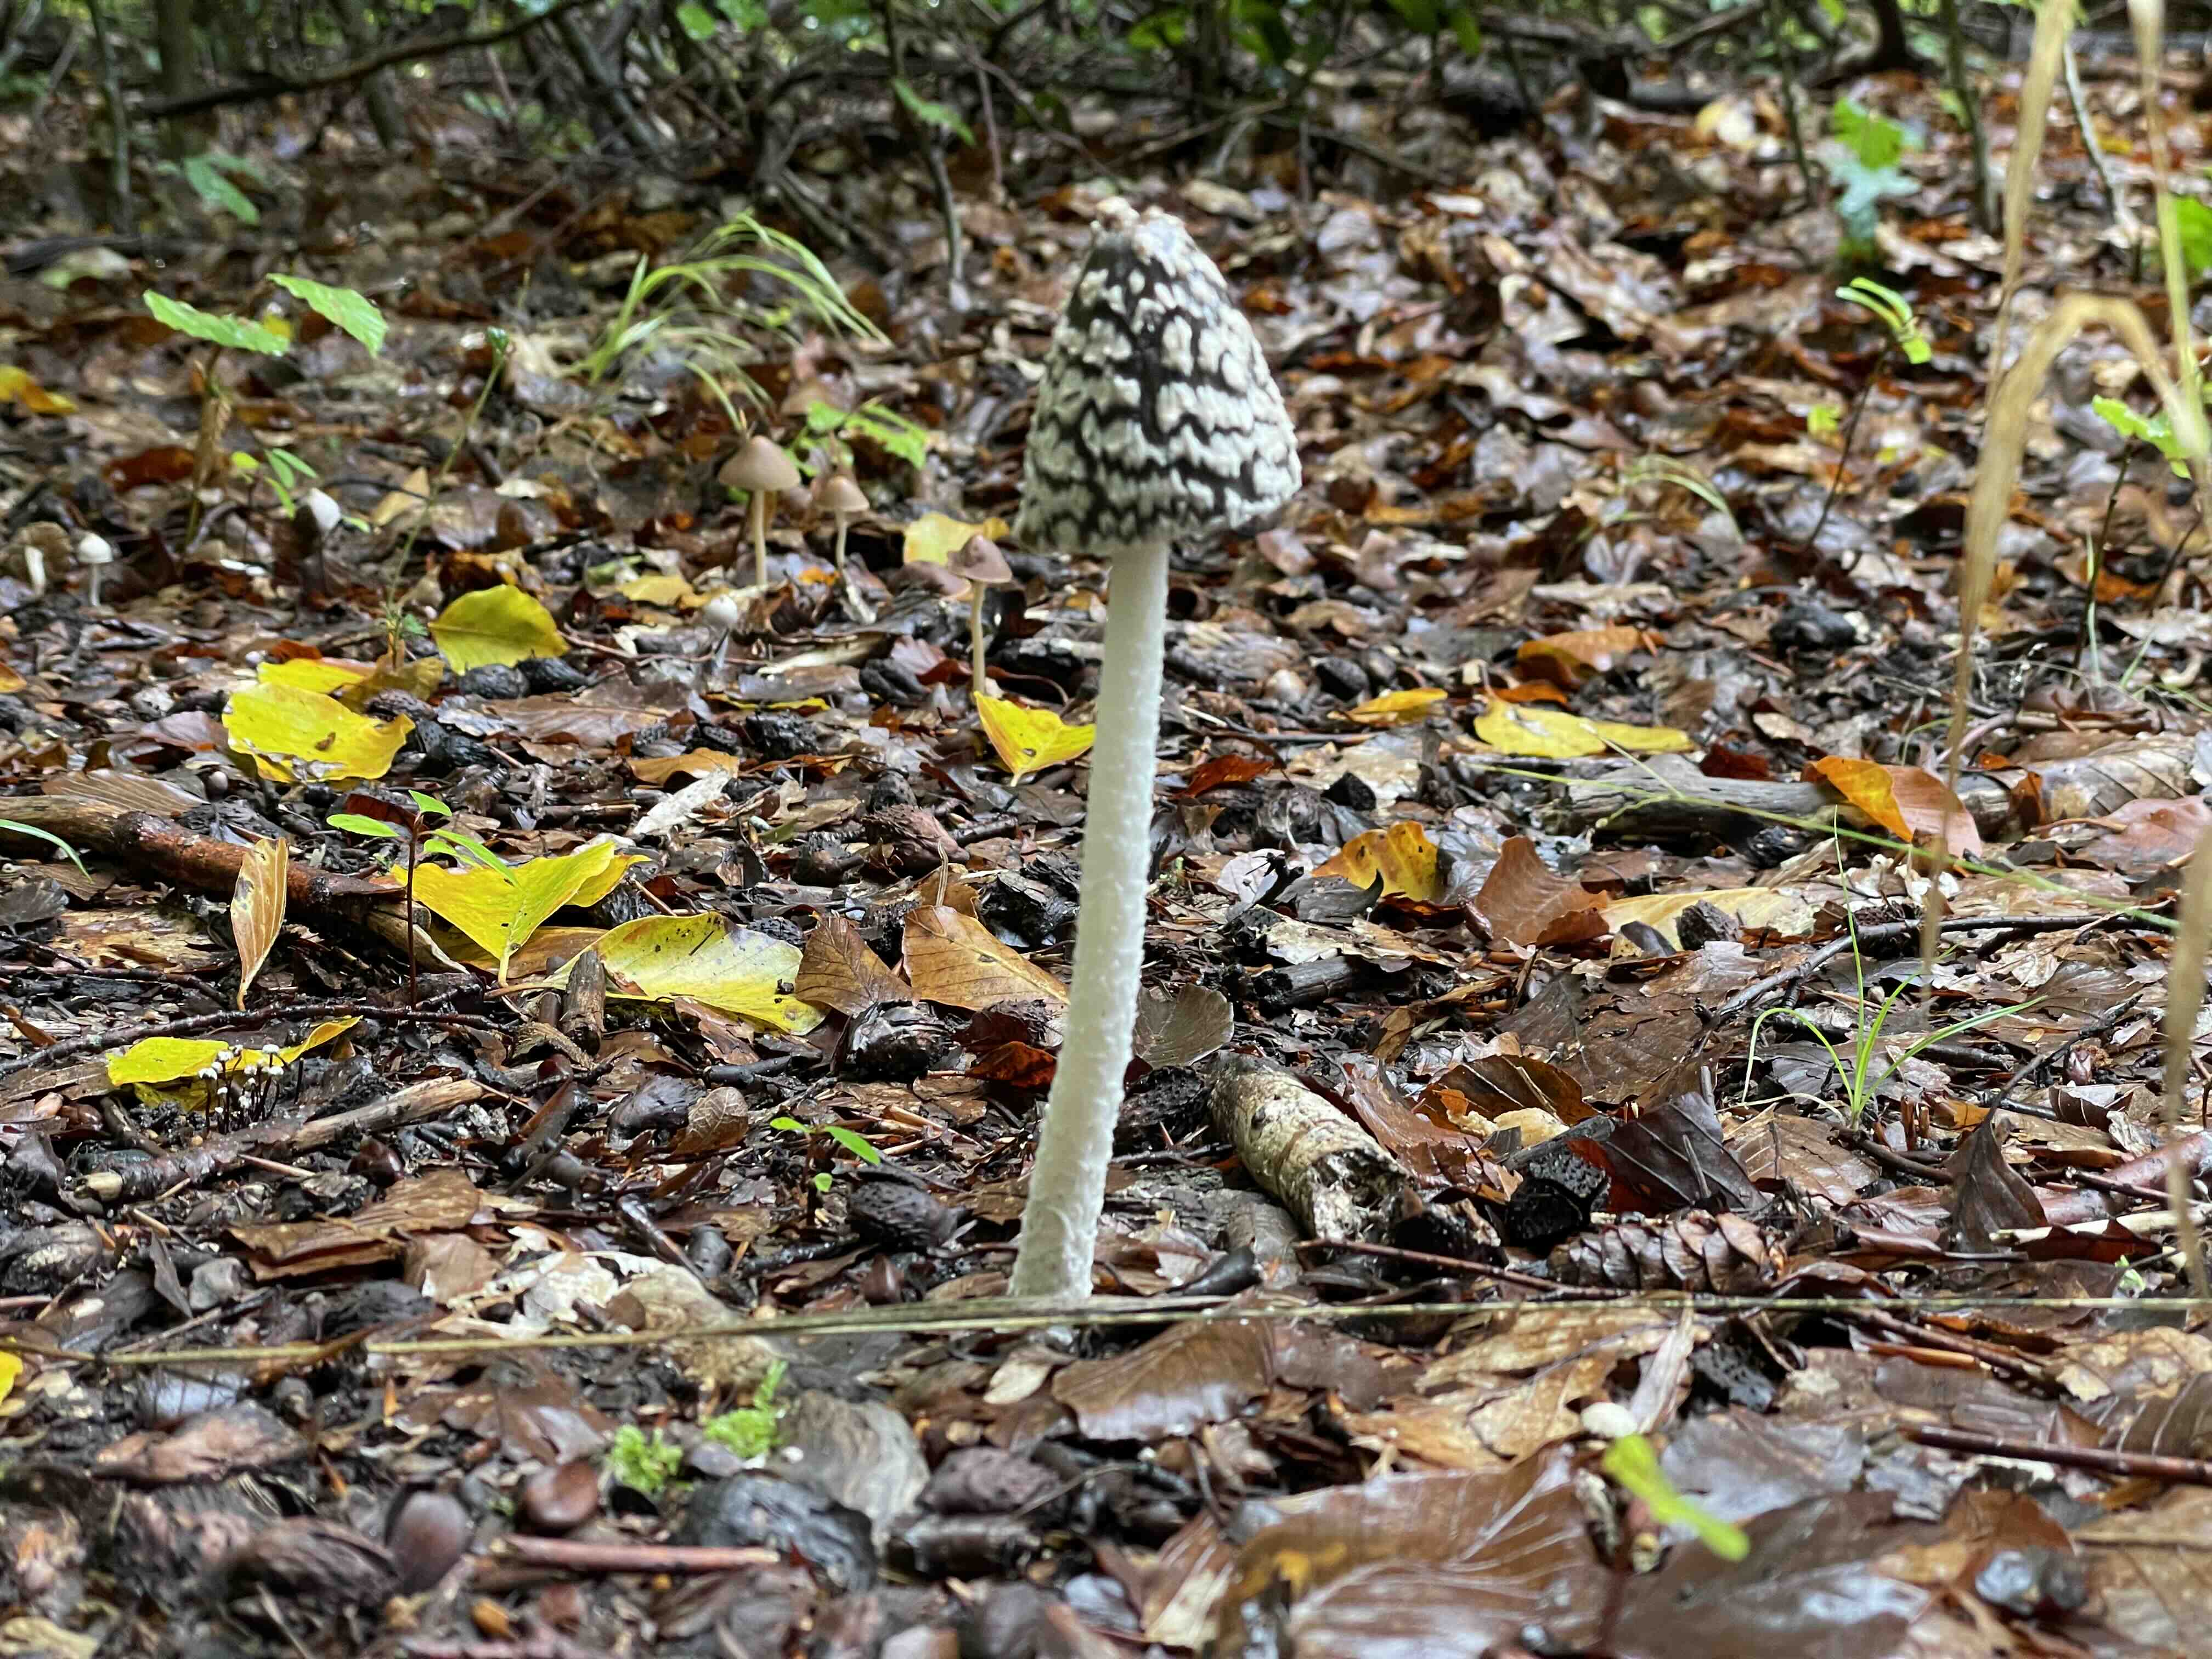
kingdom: Fungi
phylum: Basidiomycota
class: Agaricomycetes
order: Agaricales
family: Psathyrellaceae
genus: Coprinopsis
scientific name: Coprinopsis picacea
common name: skade-blækhat
